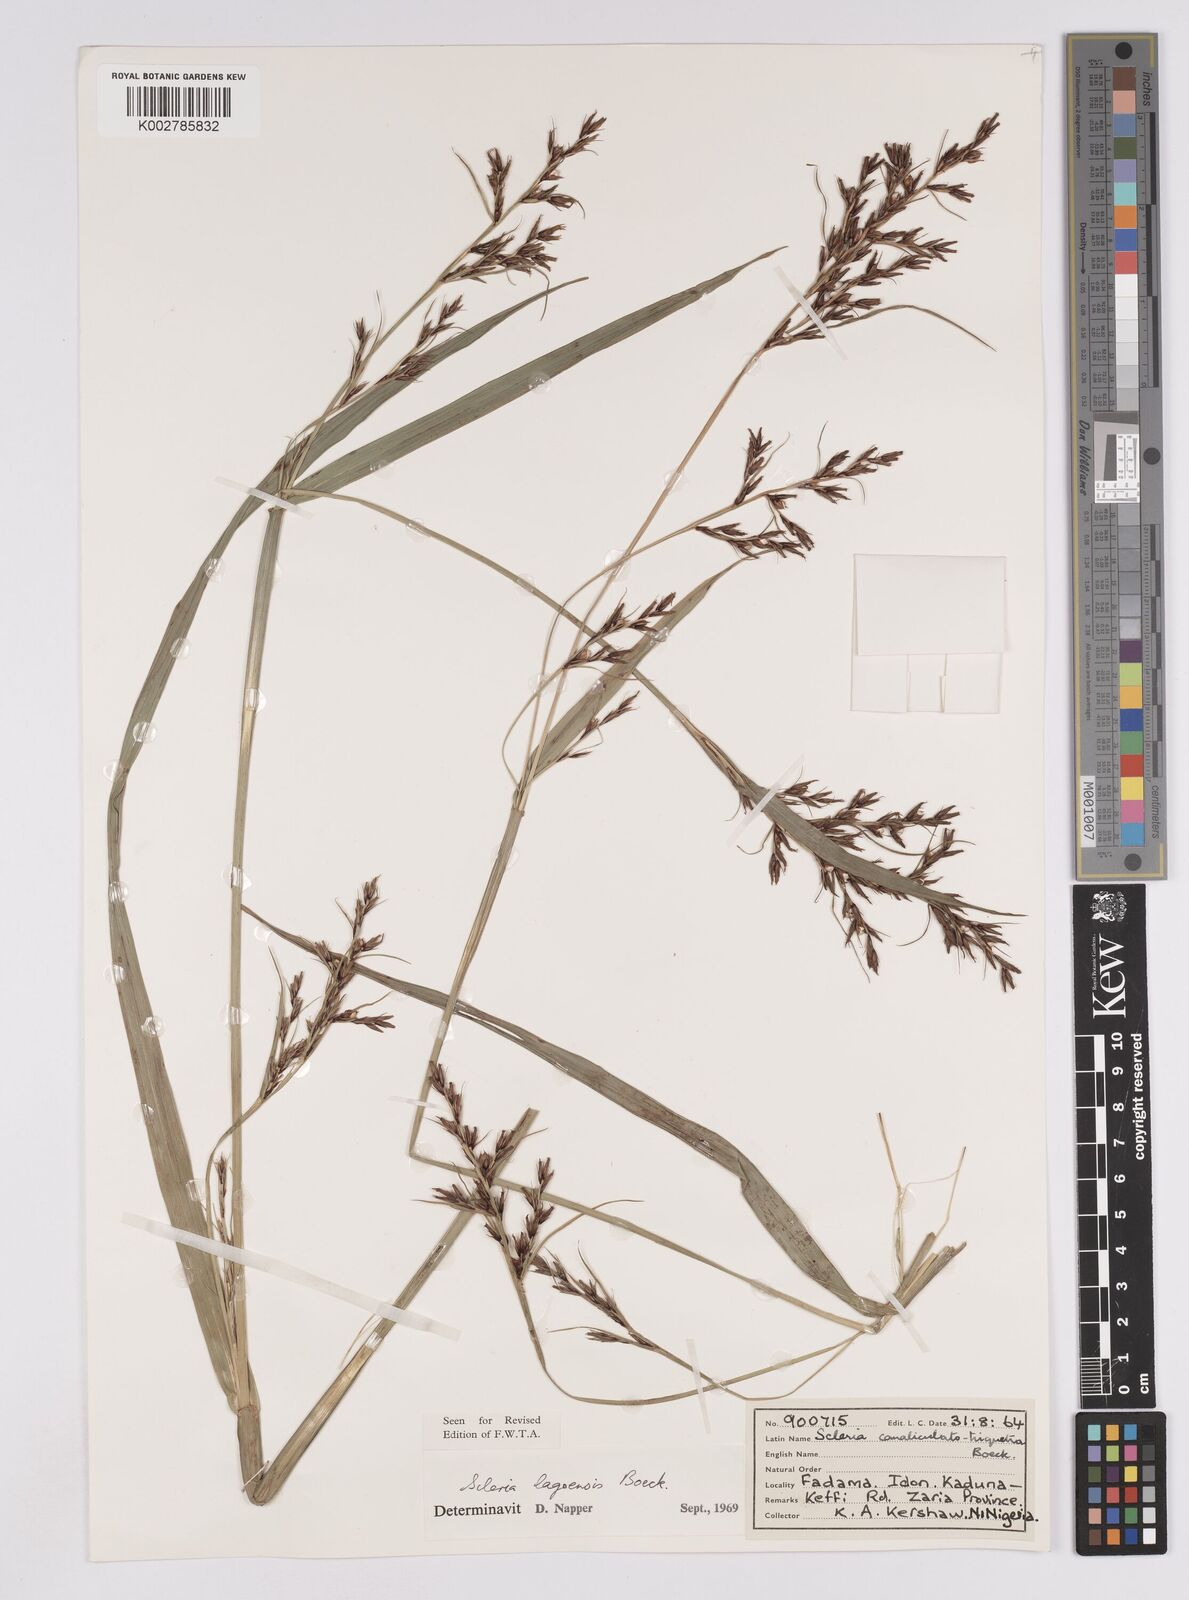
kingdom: Plantae
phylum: Tracheophyta
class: Liliopsida
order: Poales
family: Cyperaceae
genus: Scleria
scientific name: Scleria lagoensis
